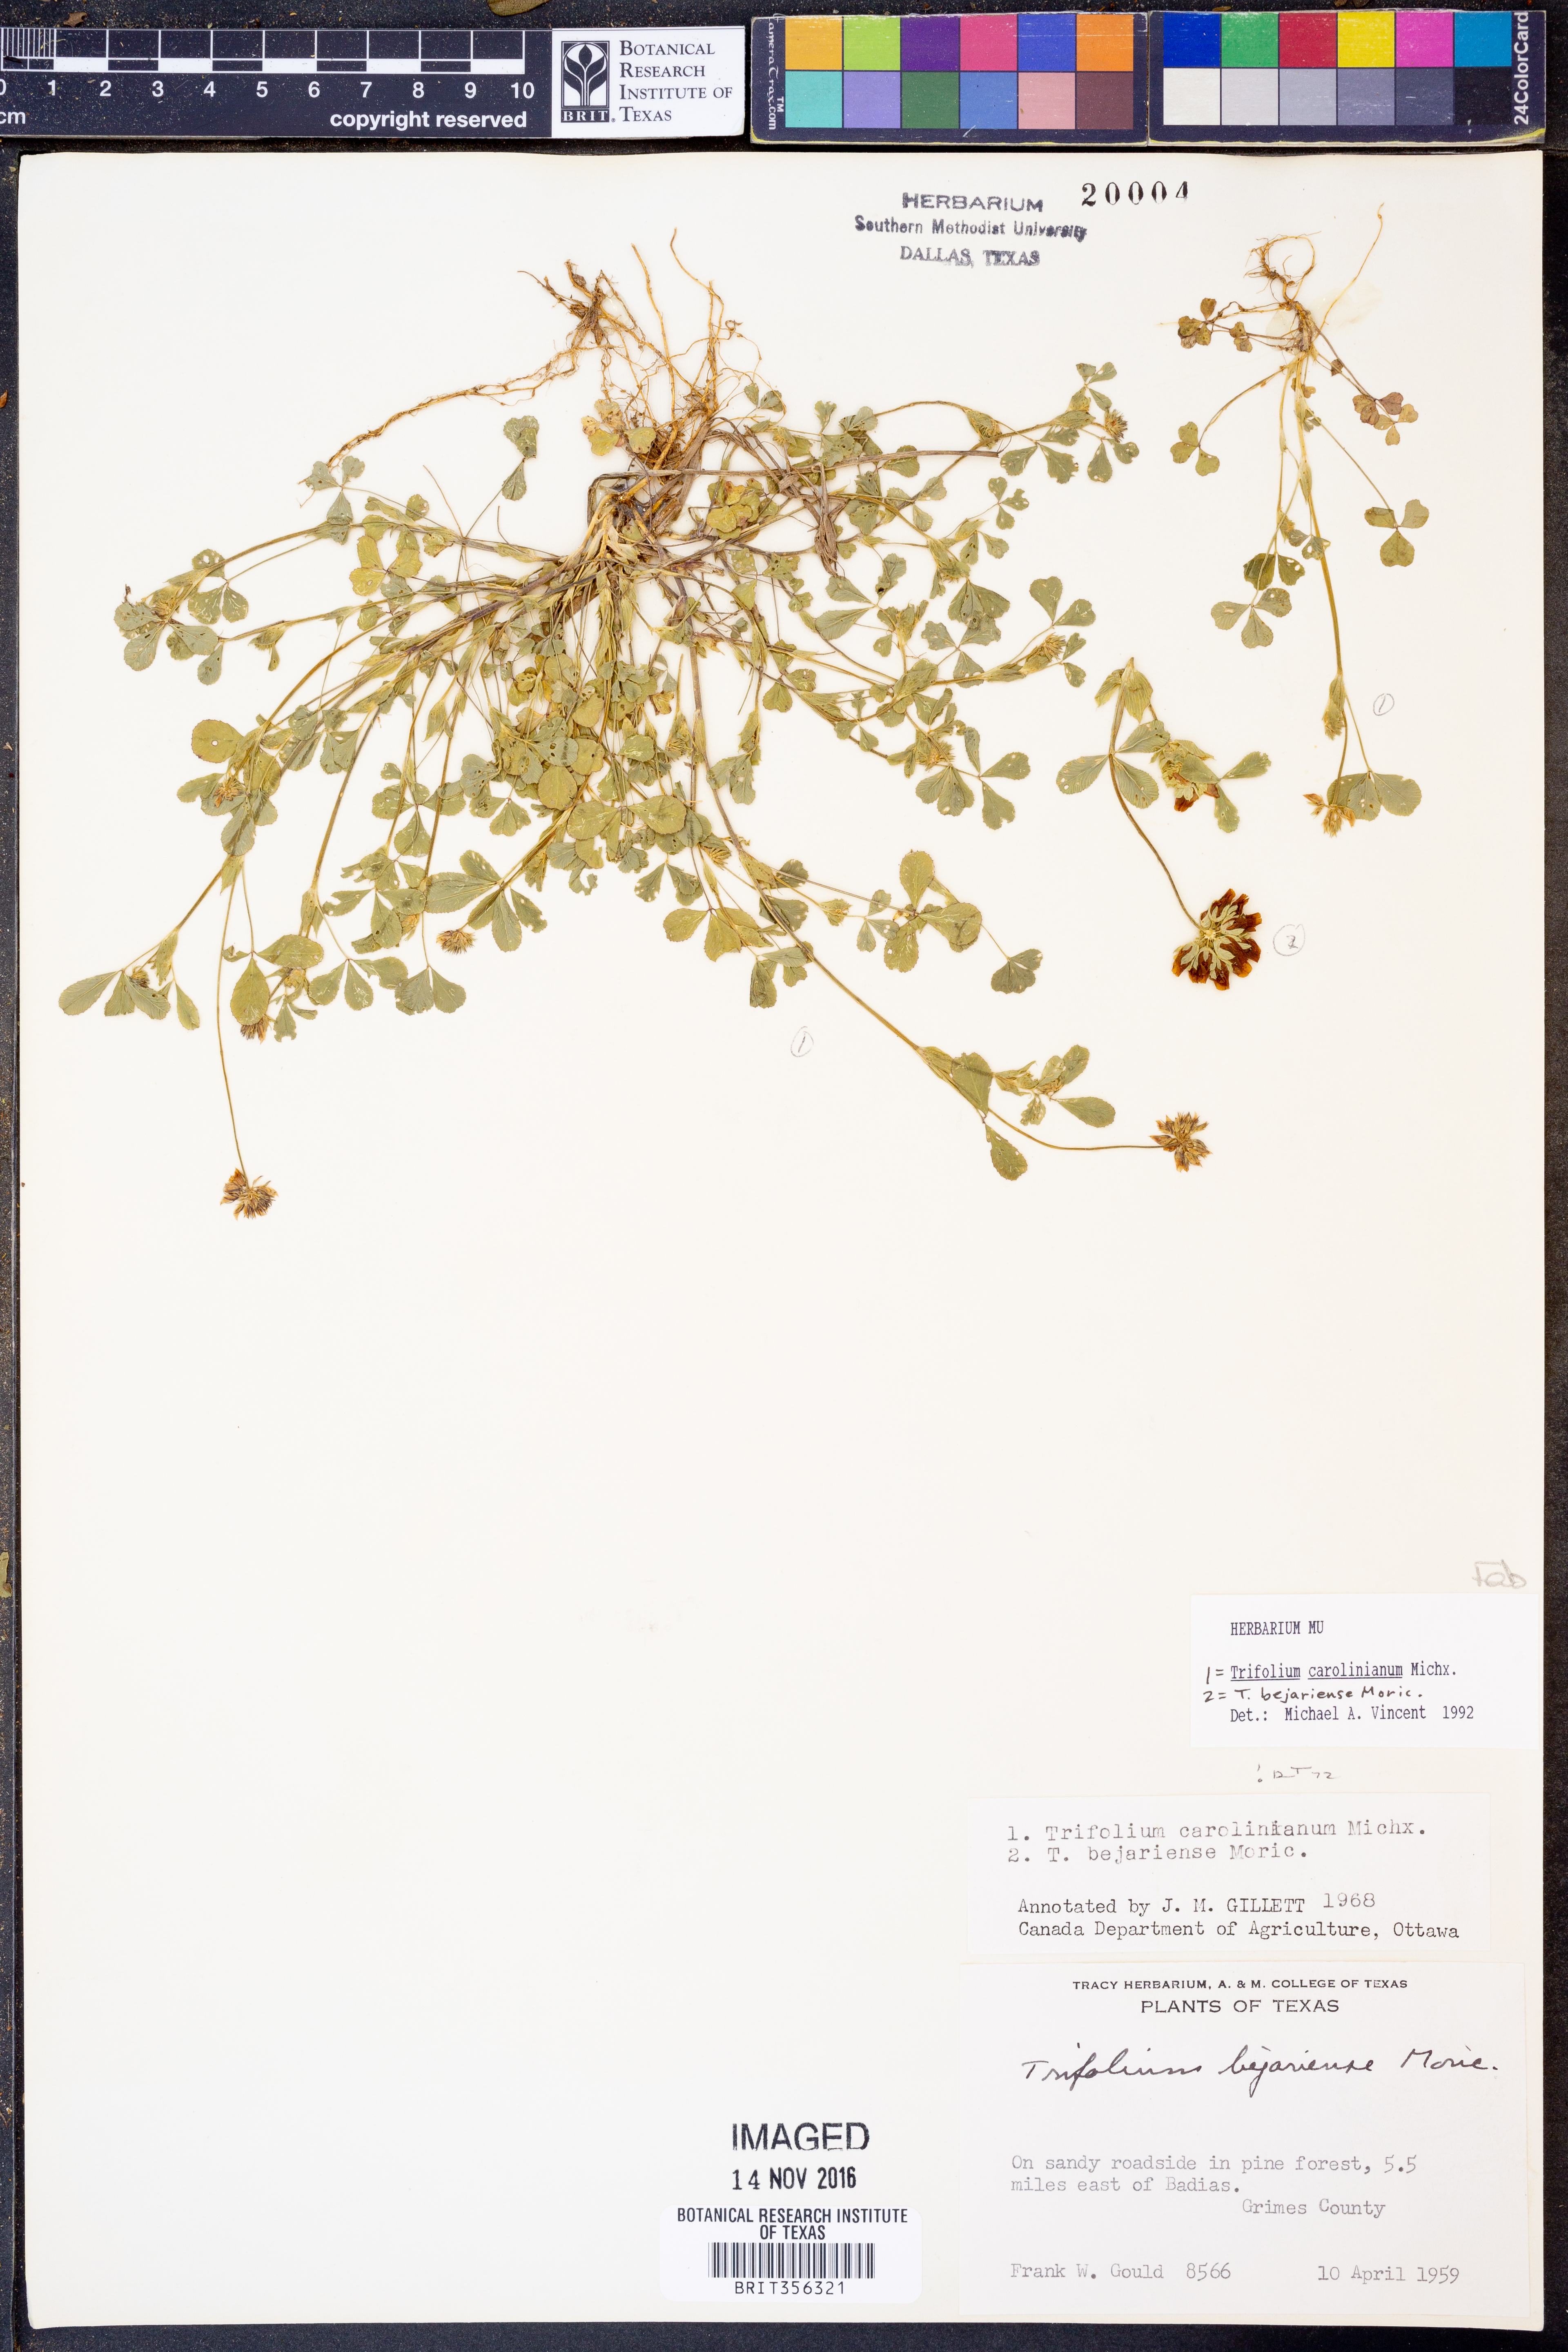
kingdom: Plantae
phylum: Tracheophyta
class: Magnoliopsida
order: Fabales
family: Fabaceae
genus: Trifolium
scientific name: Trifolium carolinianum
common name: Wild white clover
